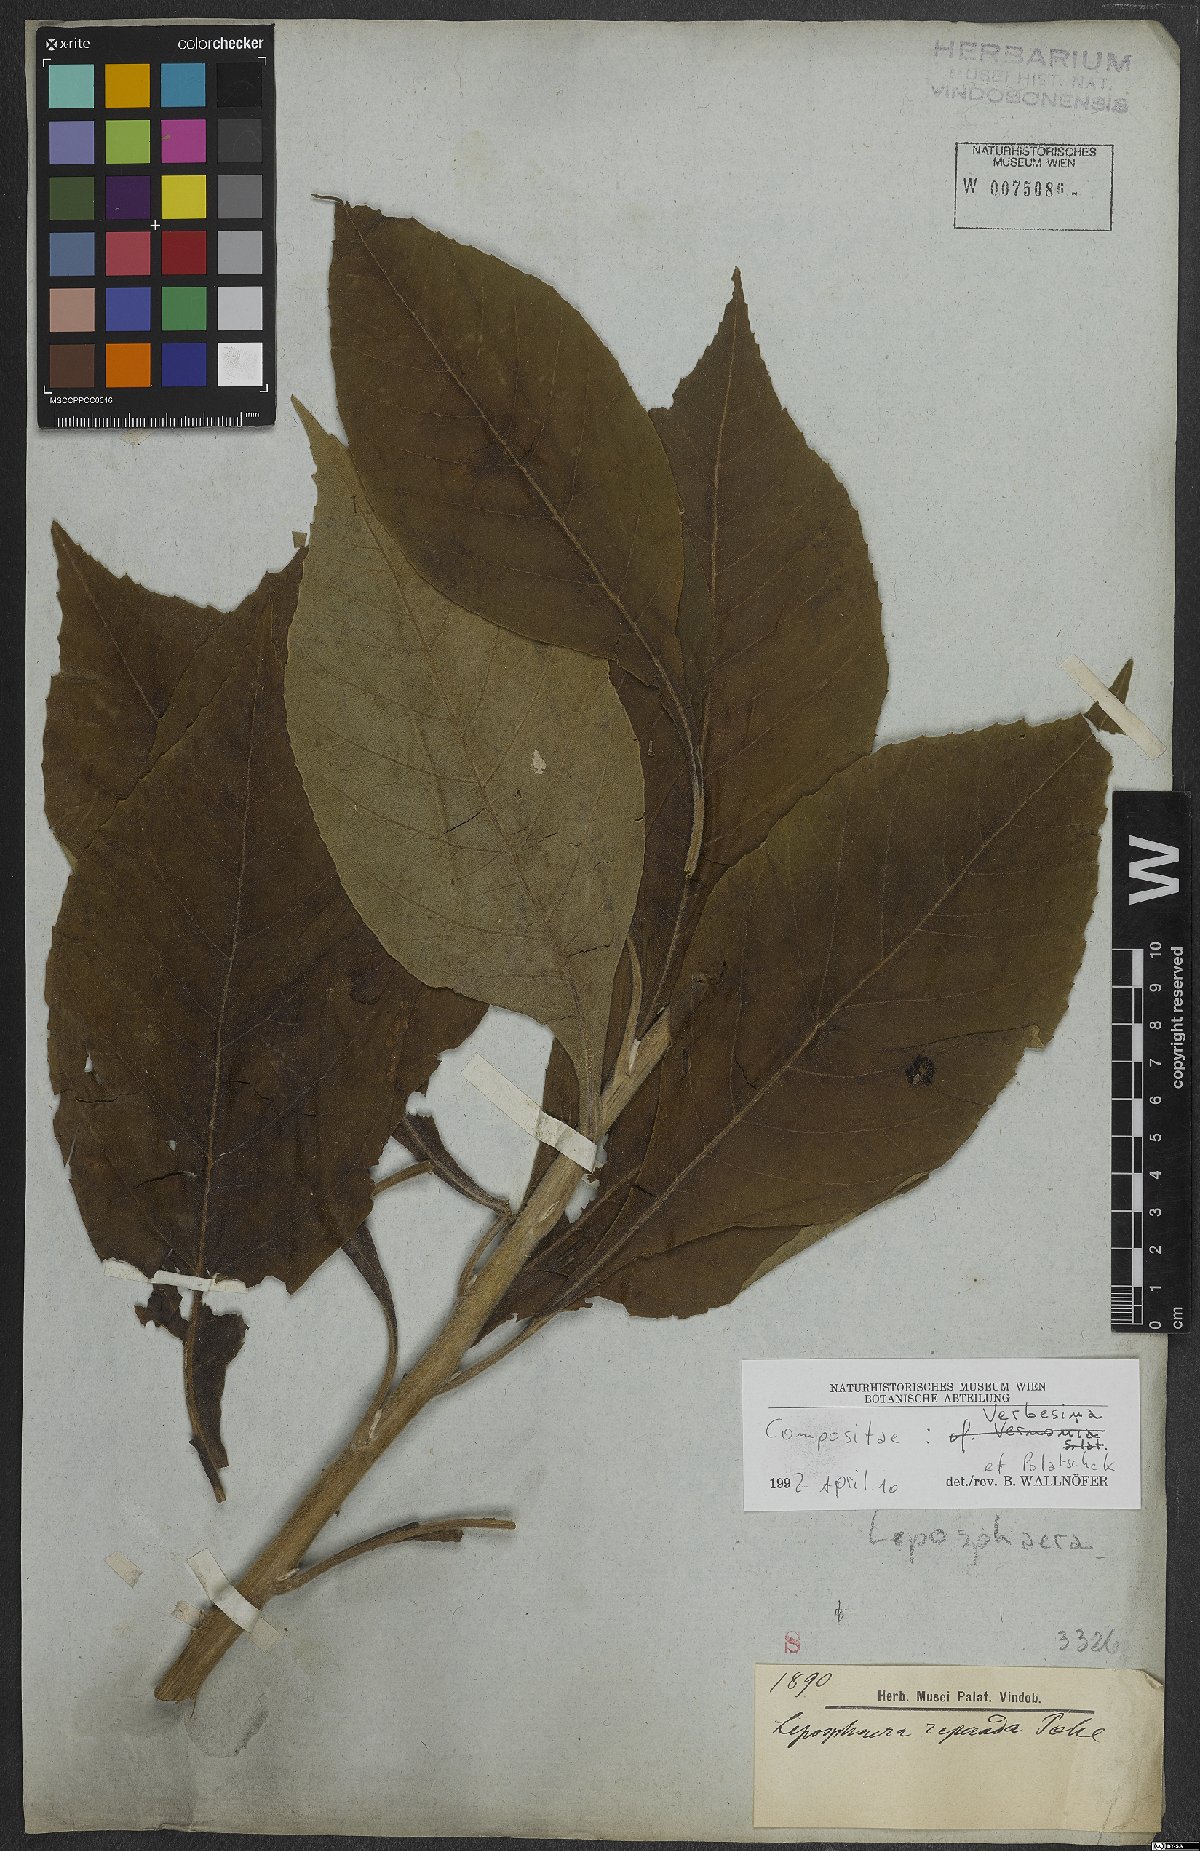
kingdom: Plantae
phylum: Tracheophyta
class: Magnoliopsida
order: Asterales
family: Asteraceae
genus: Verbesina
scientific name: Verbesina
